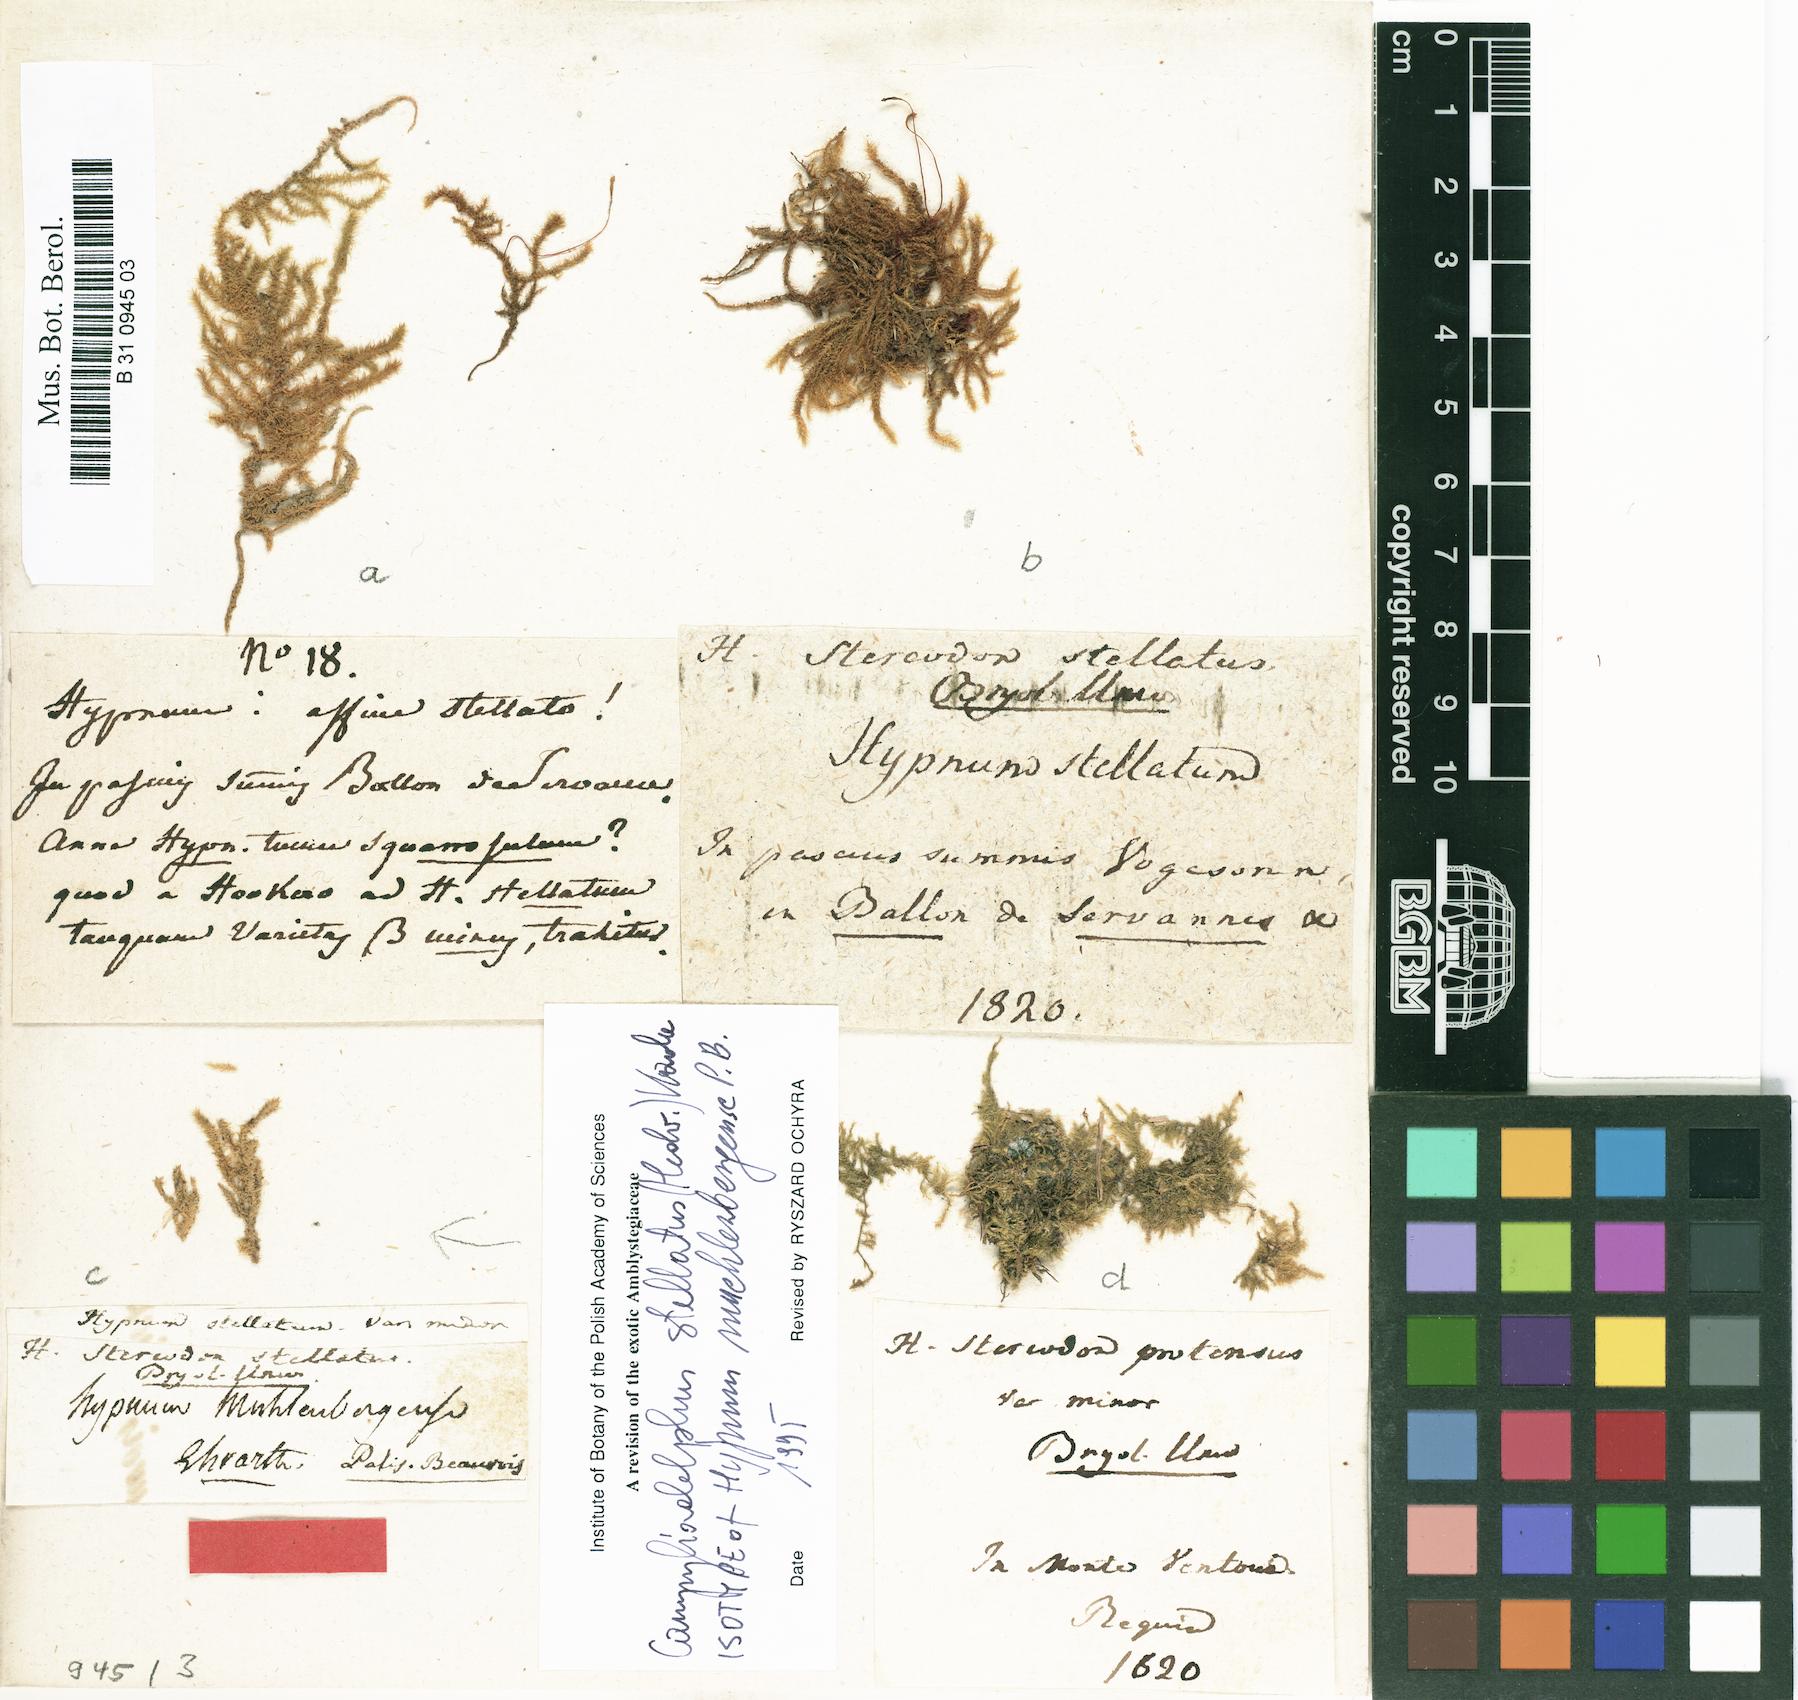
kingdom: Plantae
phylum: Bryophyta
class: Bryopsida
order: Hypnales
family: Amblystegiaceae
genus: Campylium
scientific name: Campylium stellatum
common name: Yellow starry fen moss
